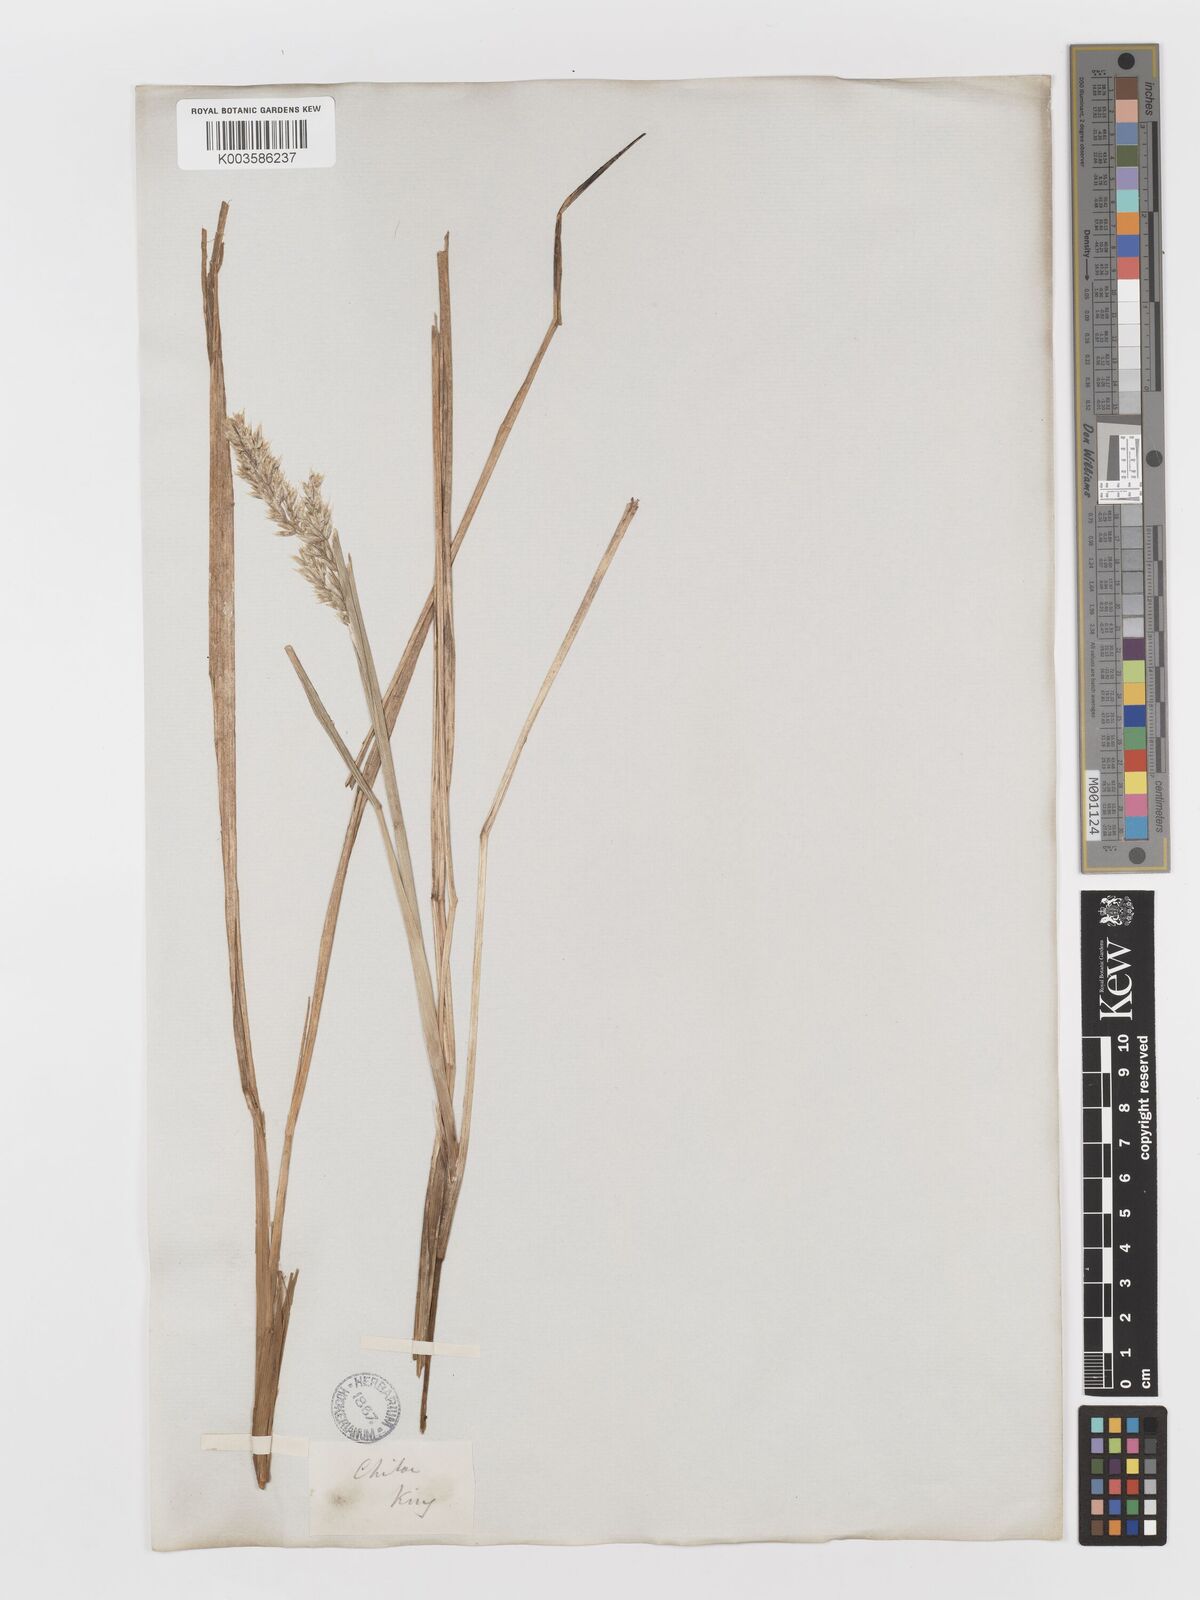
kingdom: Plantae
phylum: Tracheophyta
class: Liliopsida
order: Poales
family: Poaceae
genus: Anthoxanthum
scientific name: Anthoxanthum redolens
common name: Sweet holy grass
